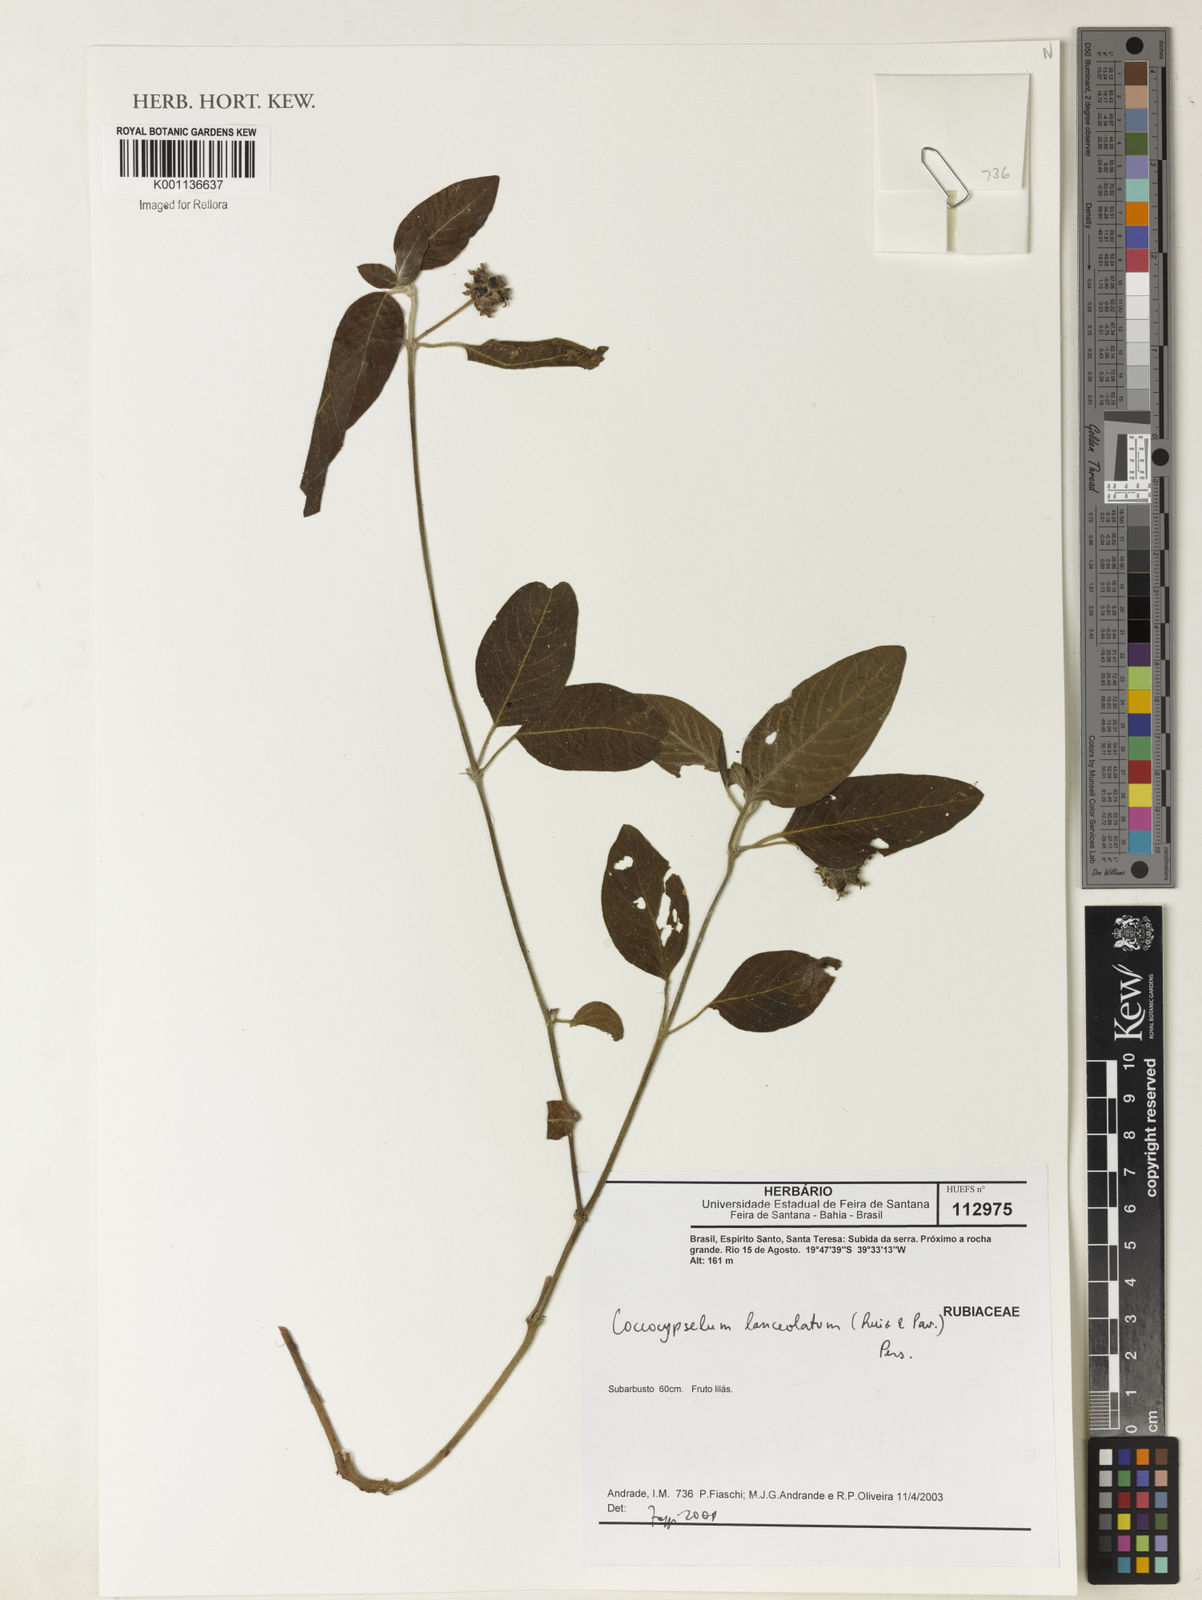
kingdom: Plantae
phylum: Tracheophyta
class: Magnoliopsida
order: Gentianales
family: Rubiaceae
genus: Coccocypselum
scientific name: Coccocypselum lanceolatum
